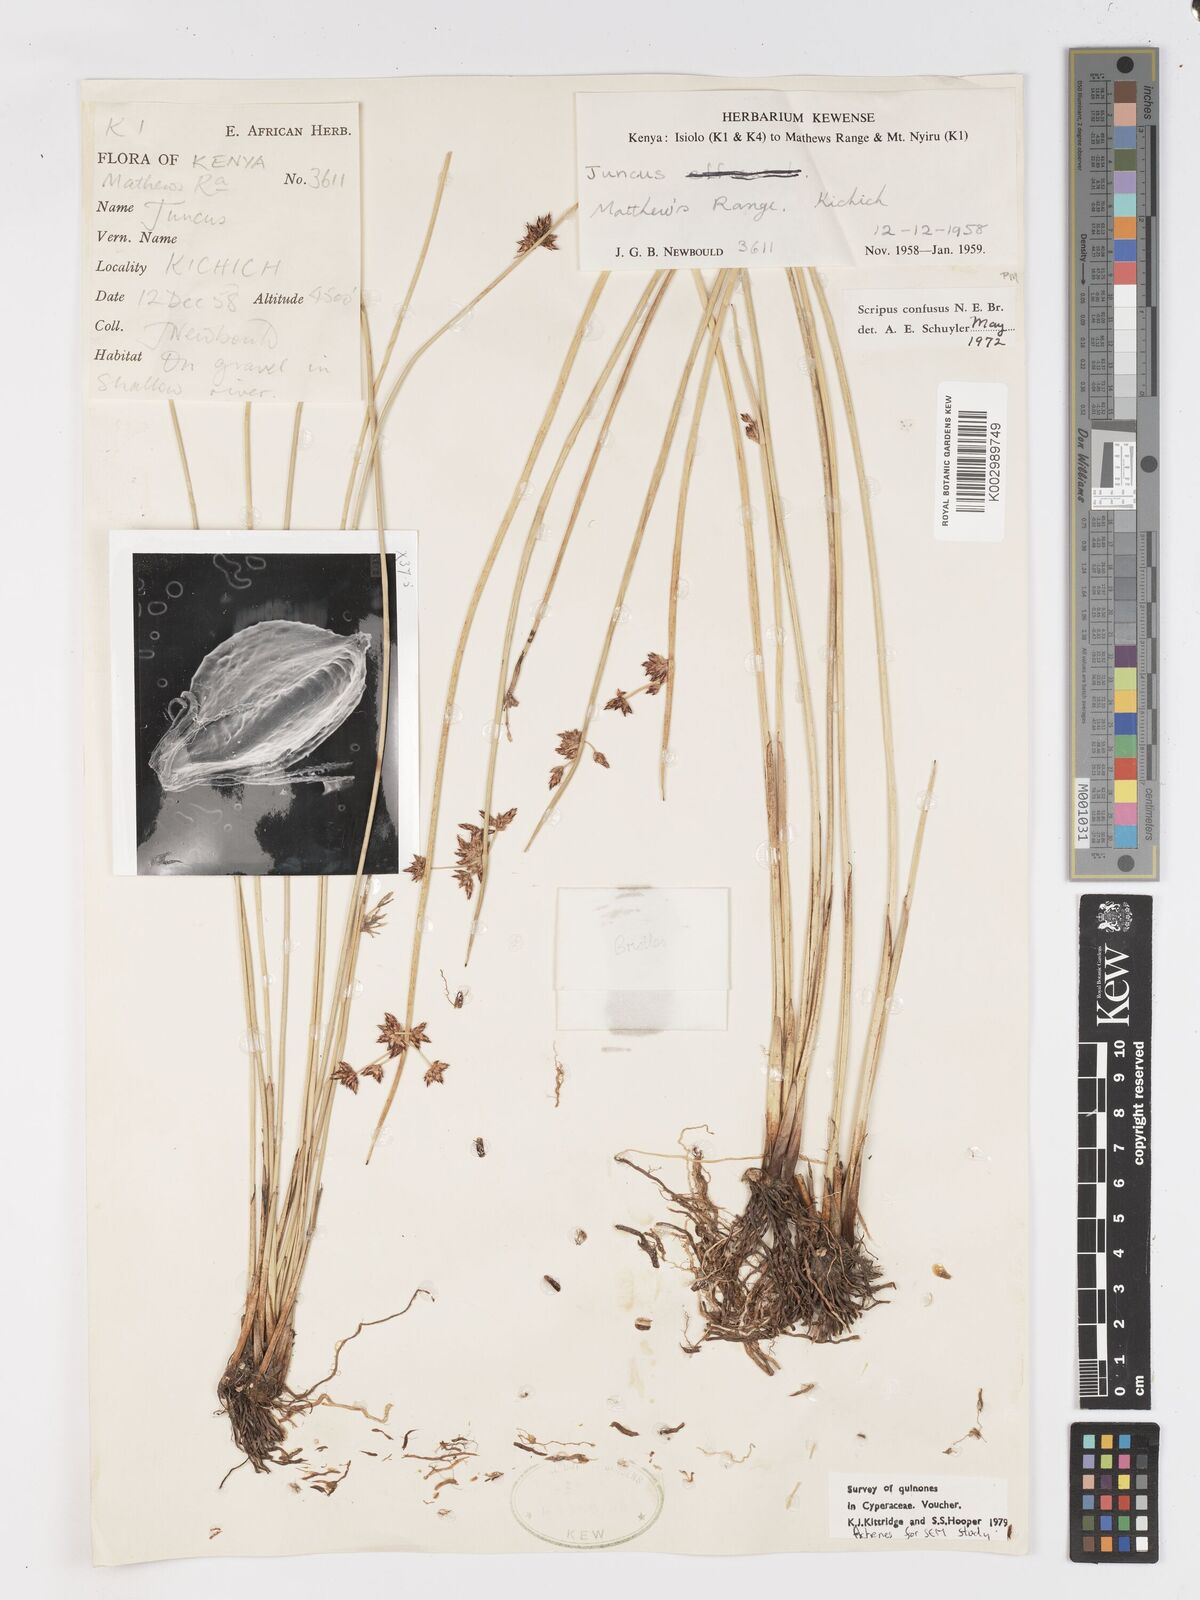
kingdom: Plantae
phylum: Tracheophyta
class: Liliopsida
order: Poales
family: Cyperaceae
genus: Schoenoplectiella
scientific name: Schoenoplectiella confusa
